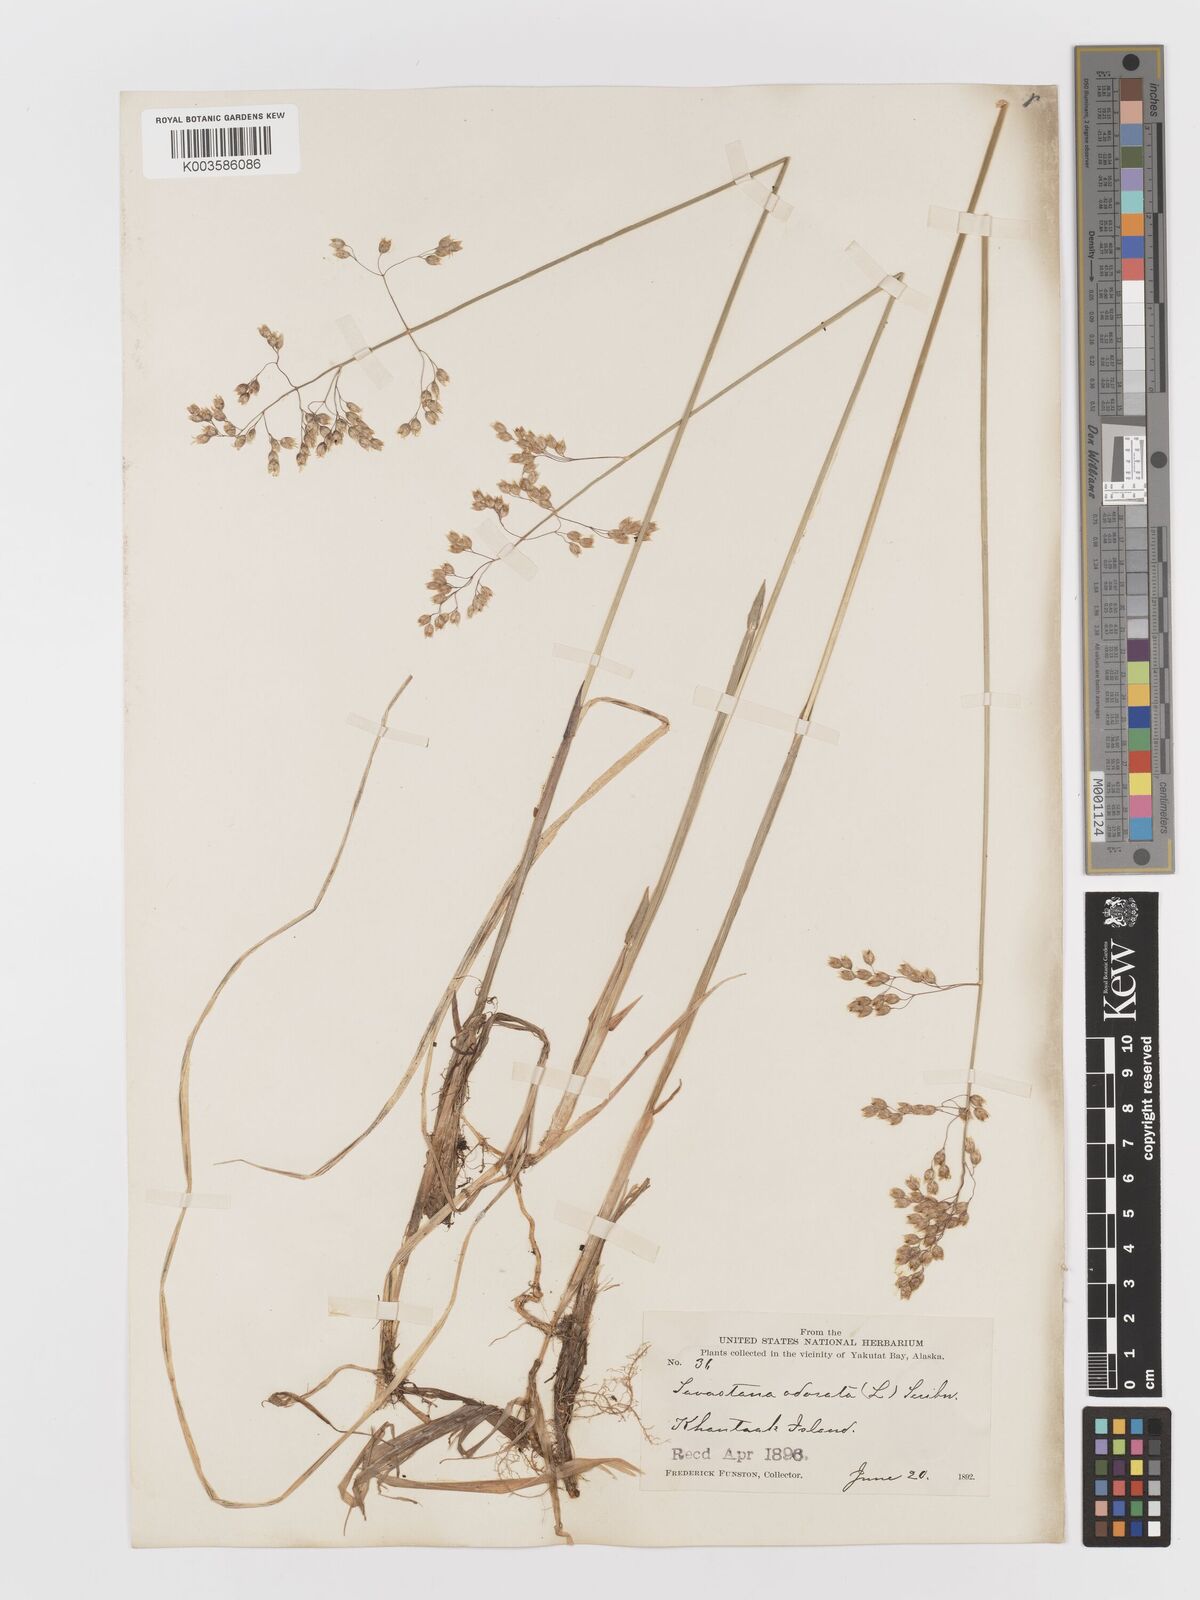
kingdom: Plantae
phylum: Tracheophyta
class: Liliopsida
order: Poales
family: Poaceae
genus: Anthoxanthum
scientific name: Anthoxanthum nitens
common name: Holy grass
